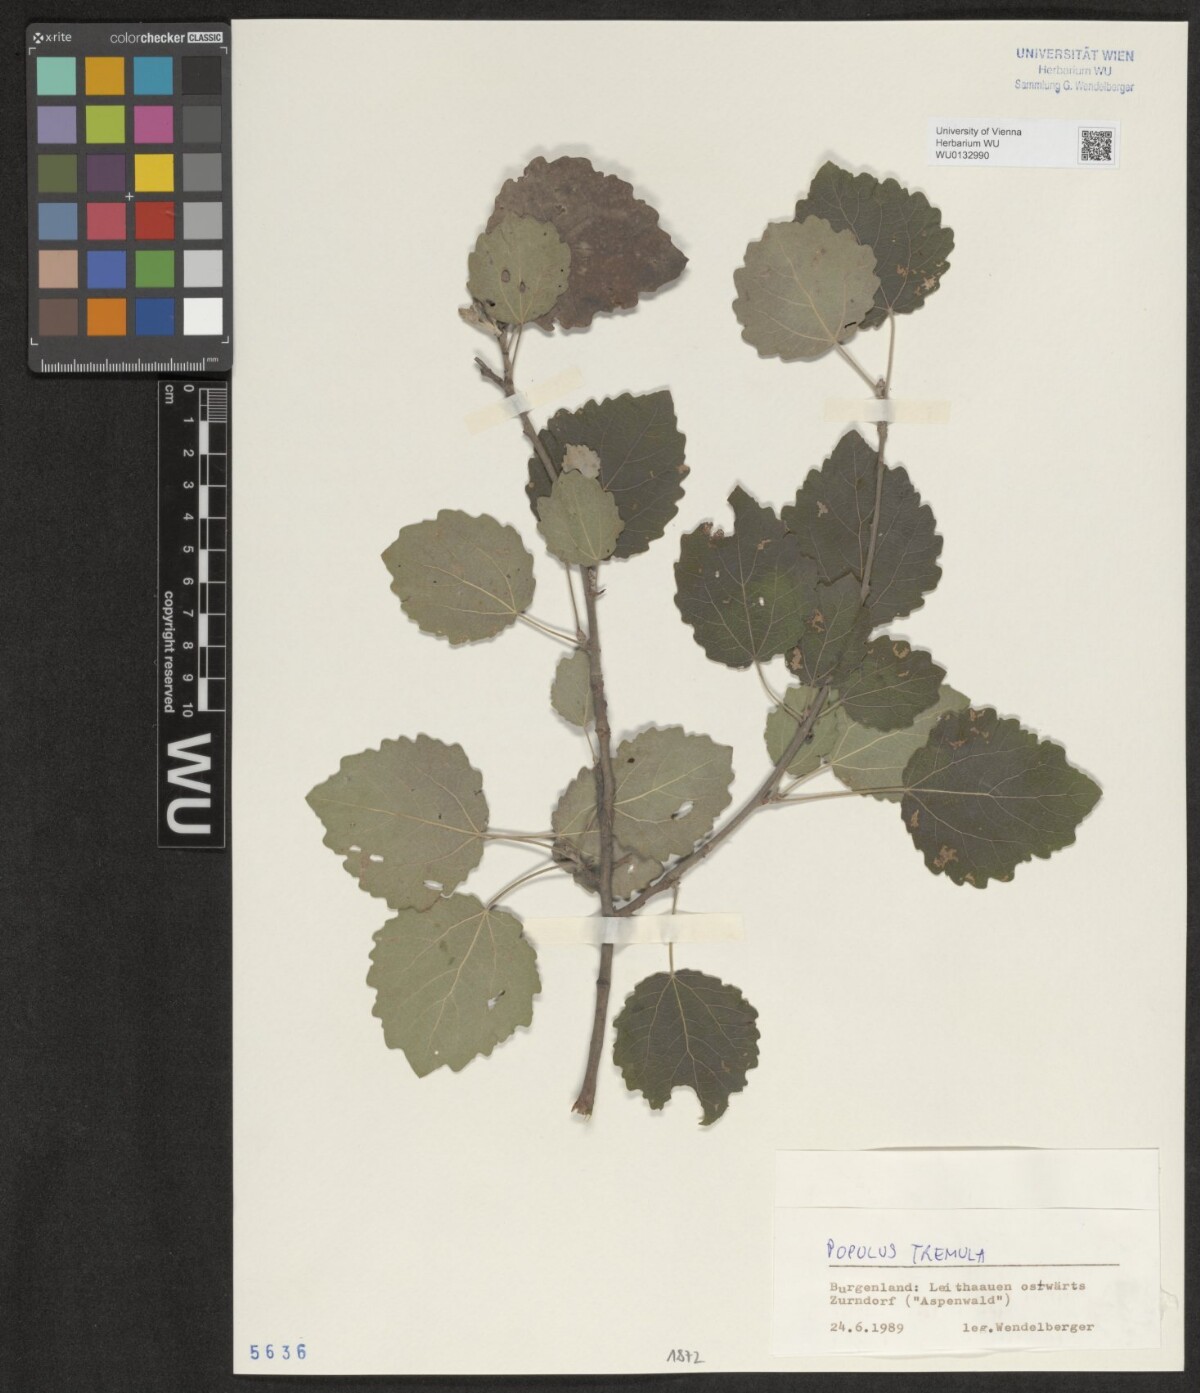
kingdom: Plantae
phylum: Tracheophyta
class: Magnoliopsida
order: Malpighiales
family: Salicaceae
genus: Populus
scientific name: Populus tremula
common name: European aspen
